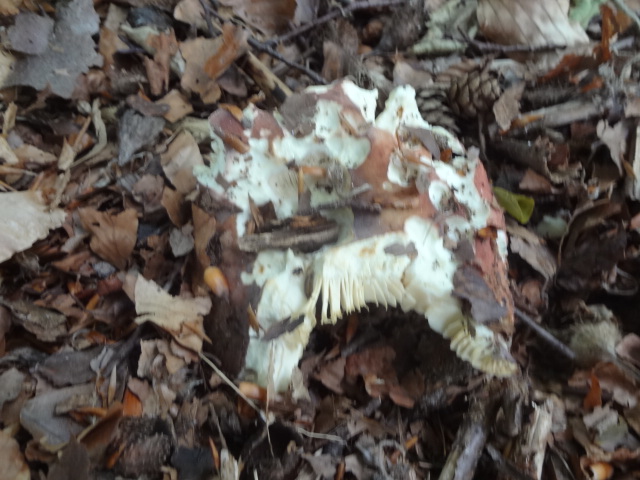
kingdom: Fungi
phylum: Basidiomycota
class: Agaricomycetes
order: Russulales
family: Russulaceae
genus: Russula
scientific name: Russula
